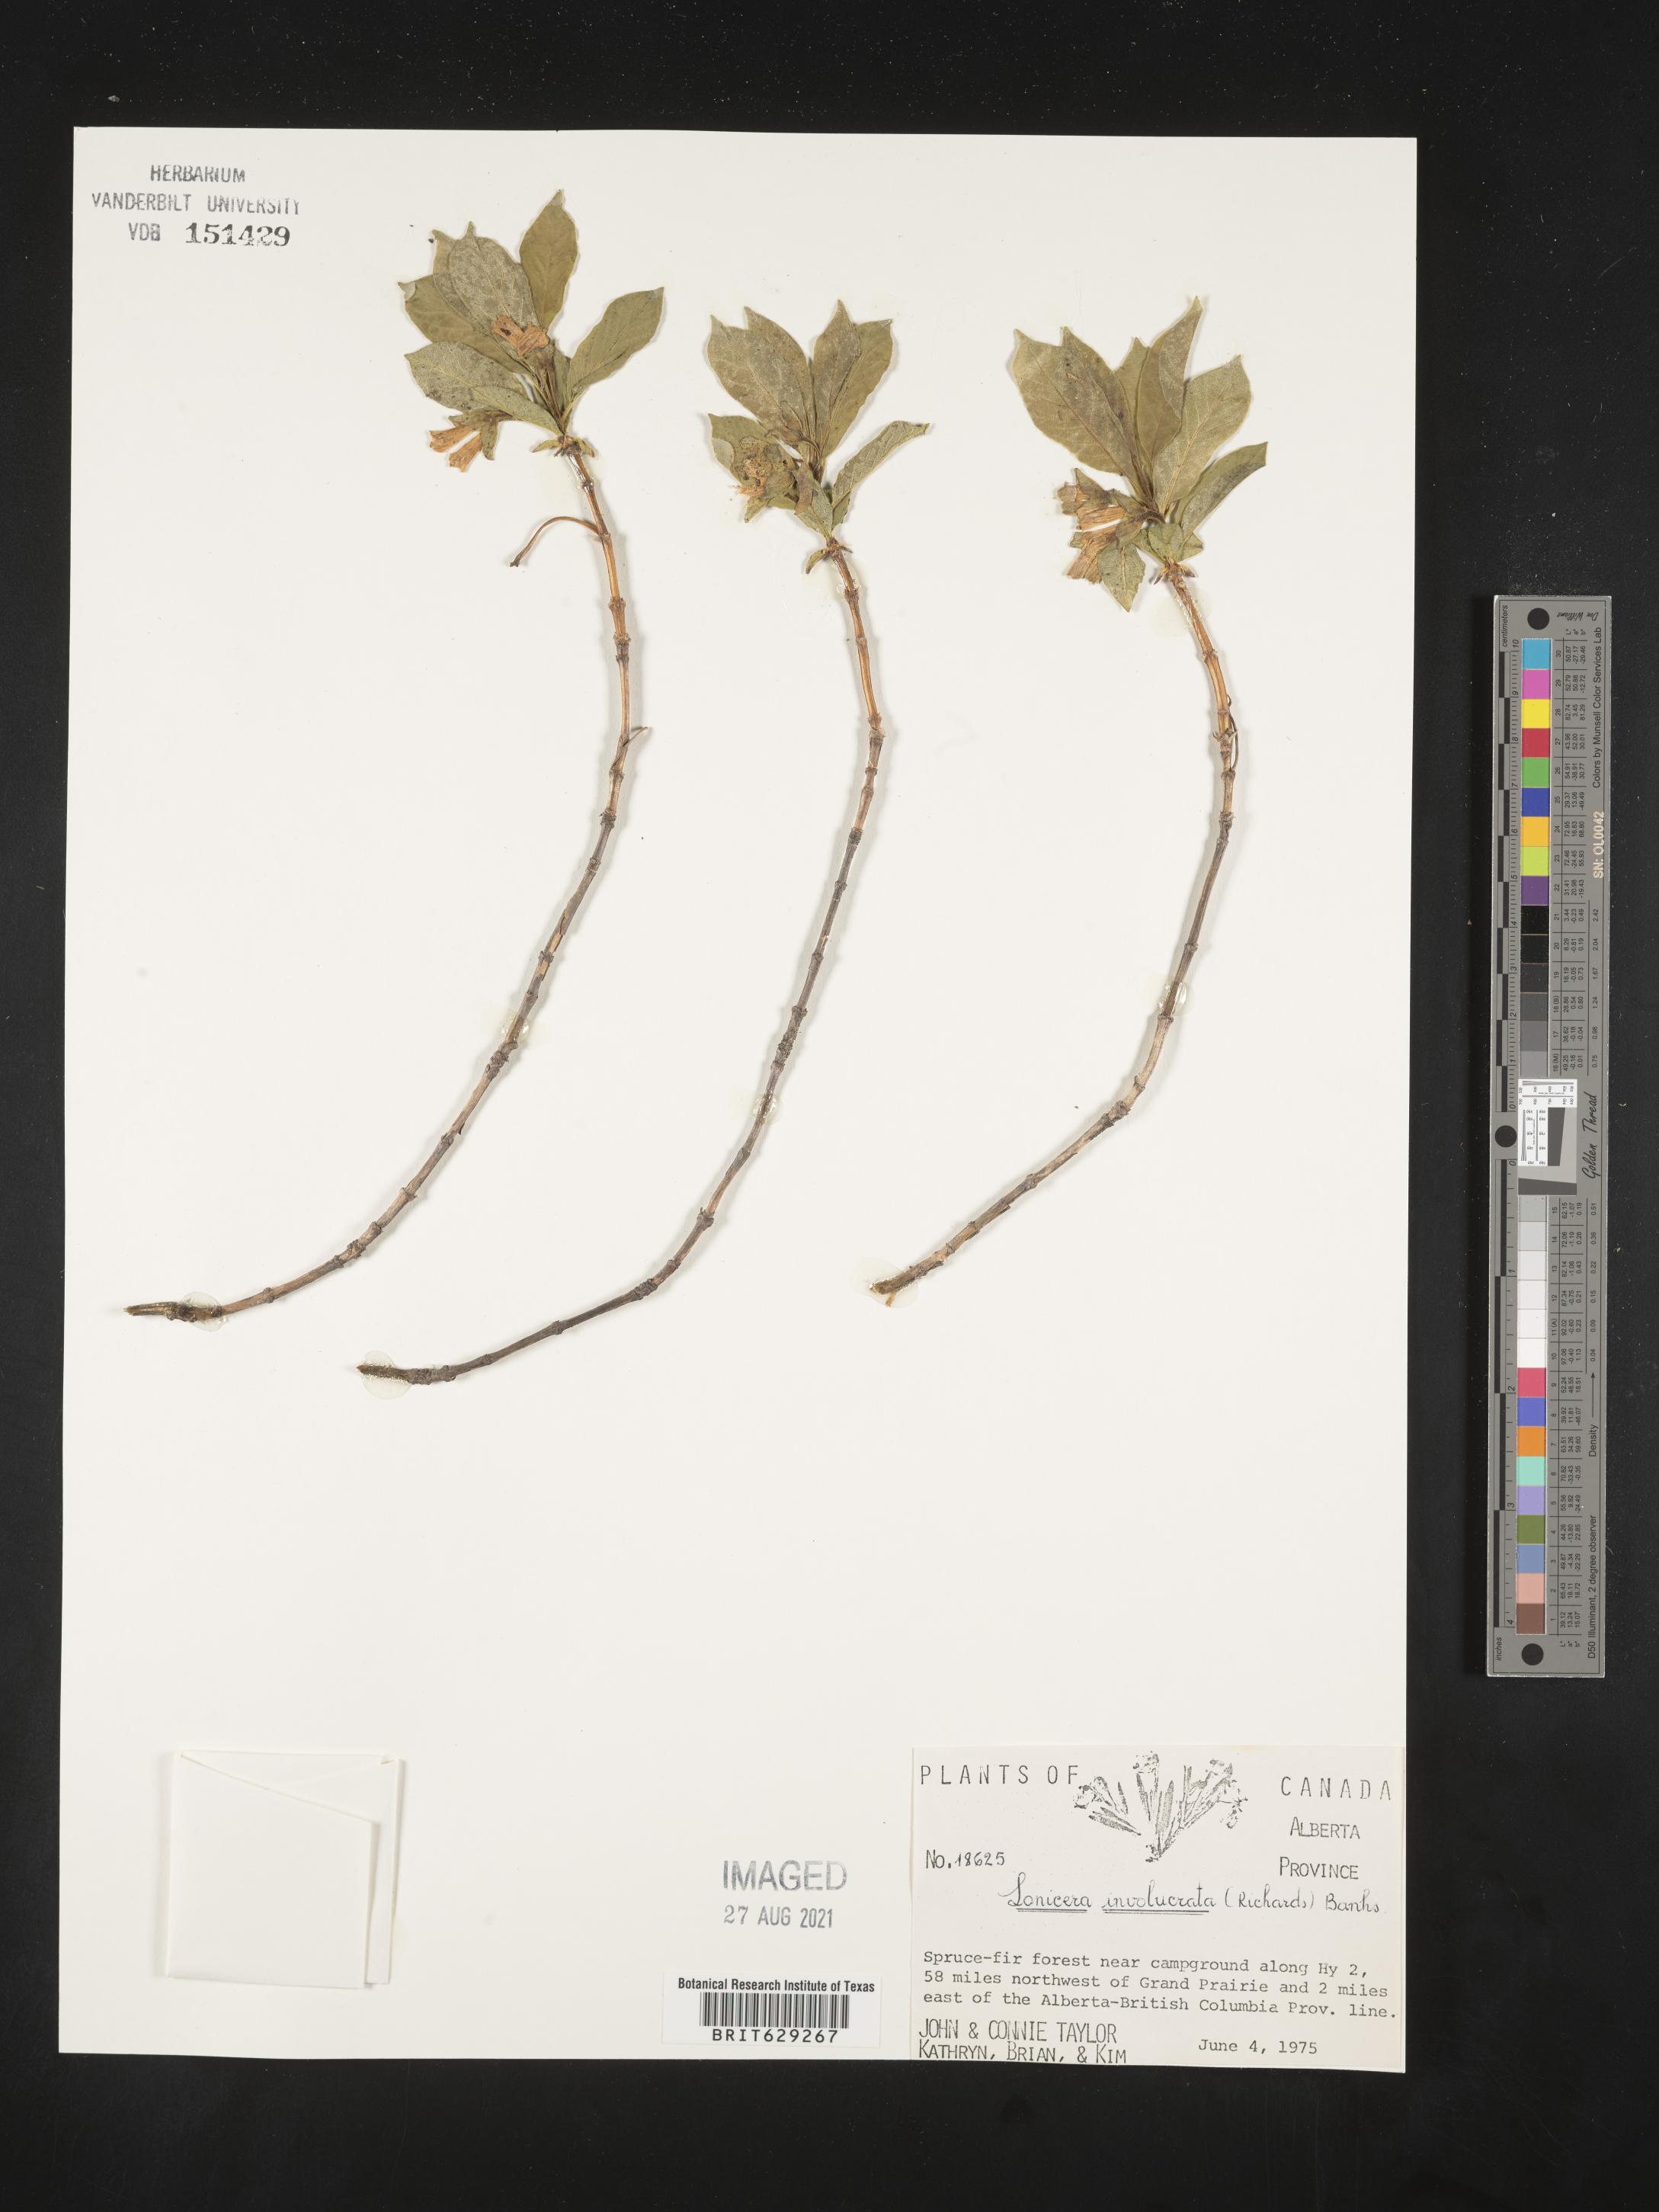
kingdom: Plantae
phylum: Tracheophyta
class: Magnoliopsida
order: Dipsacales
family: Caprifoliaceae
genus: Lonicera
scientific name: Lonicera involucrata
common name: Californian honeysuckle
